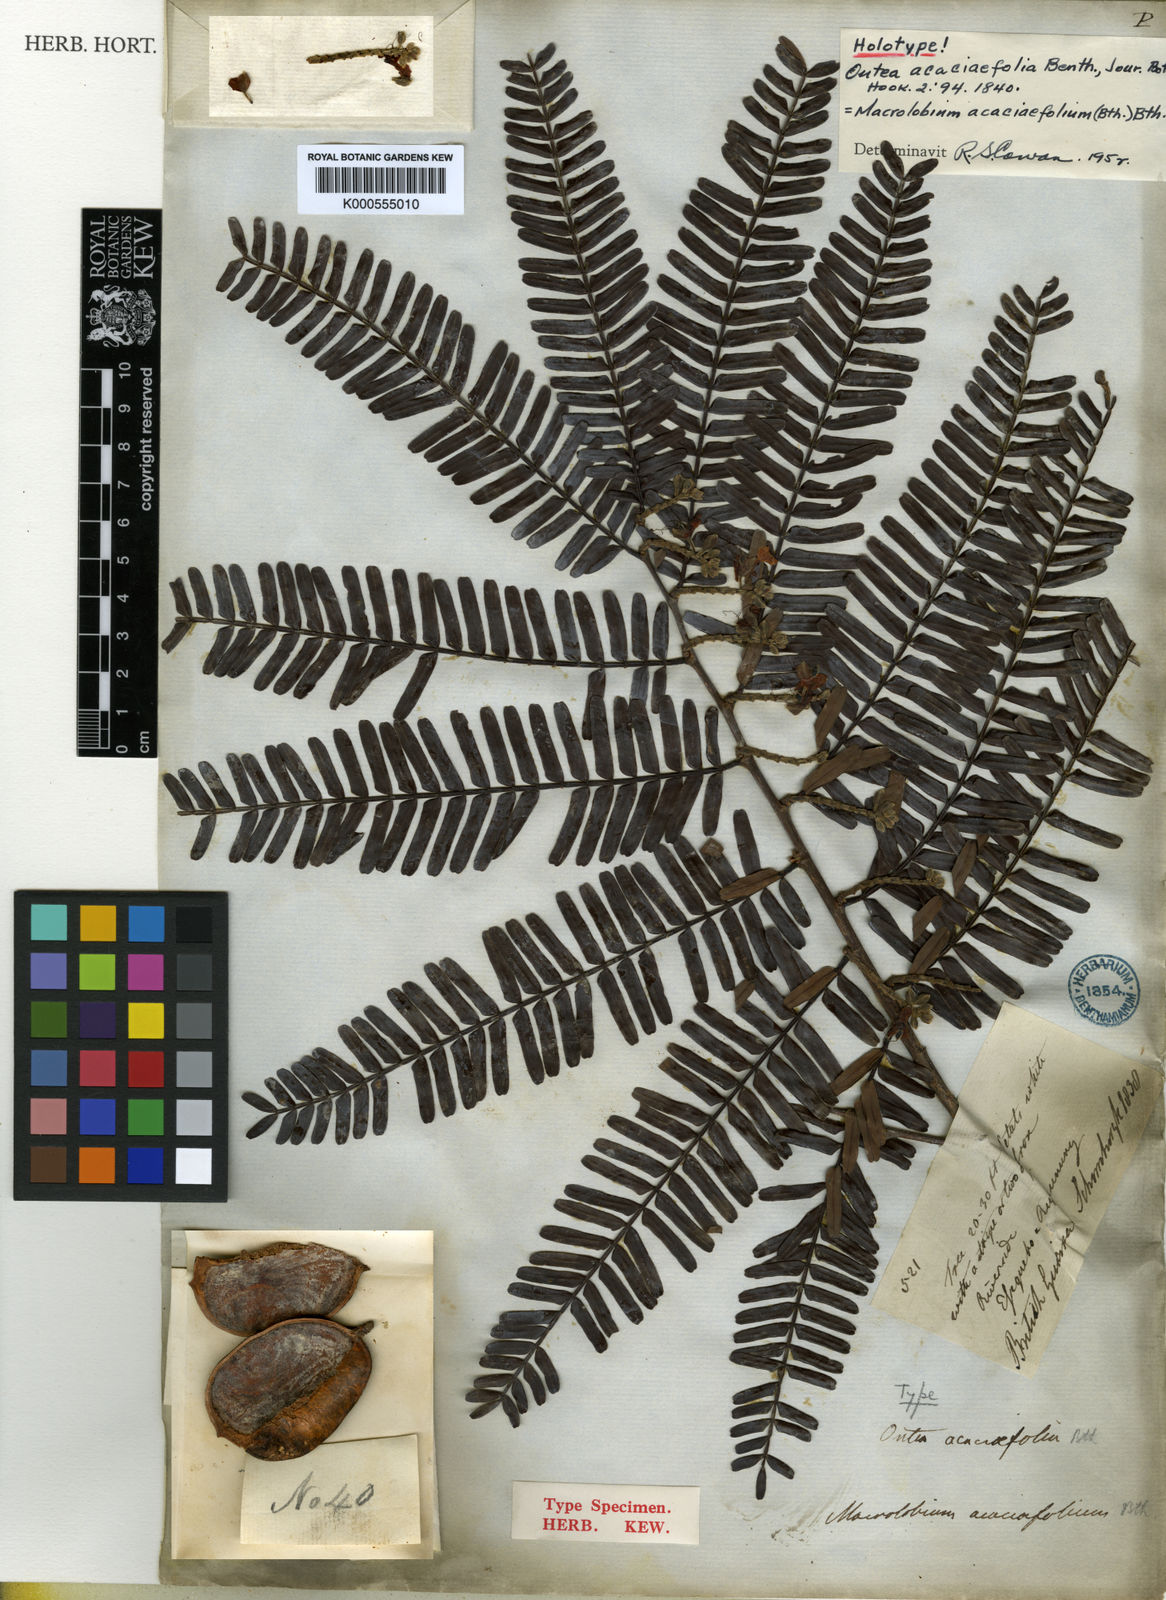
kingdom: Plantae
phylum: Tracheophyta
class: Magnoliopsida
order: Fabales
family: Fabaceae
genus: Macrolobium
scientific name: Macrolobium
